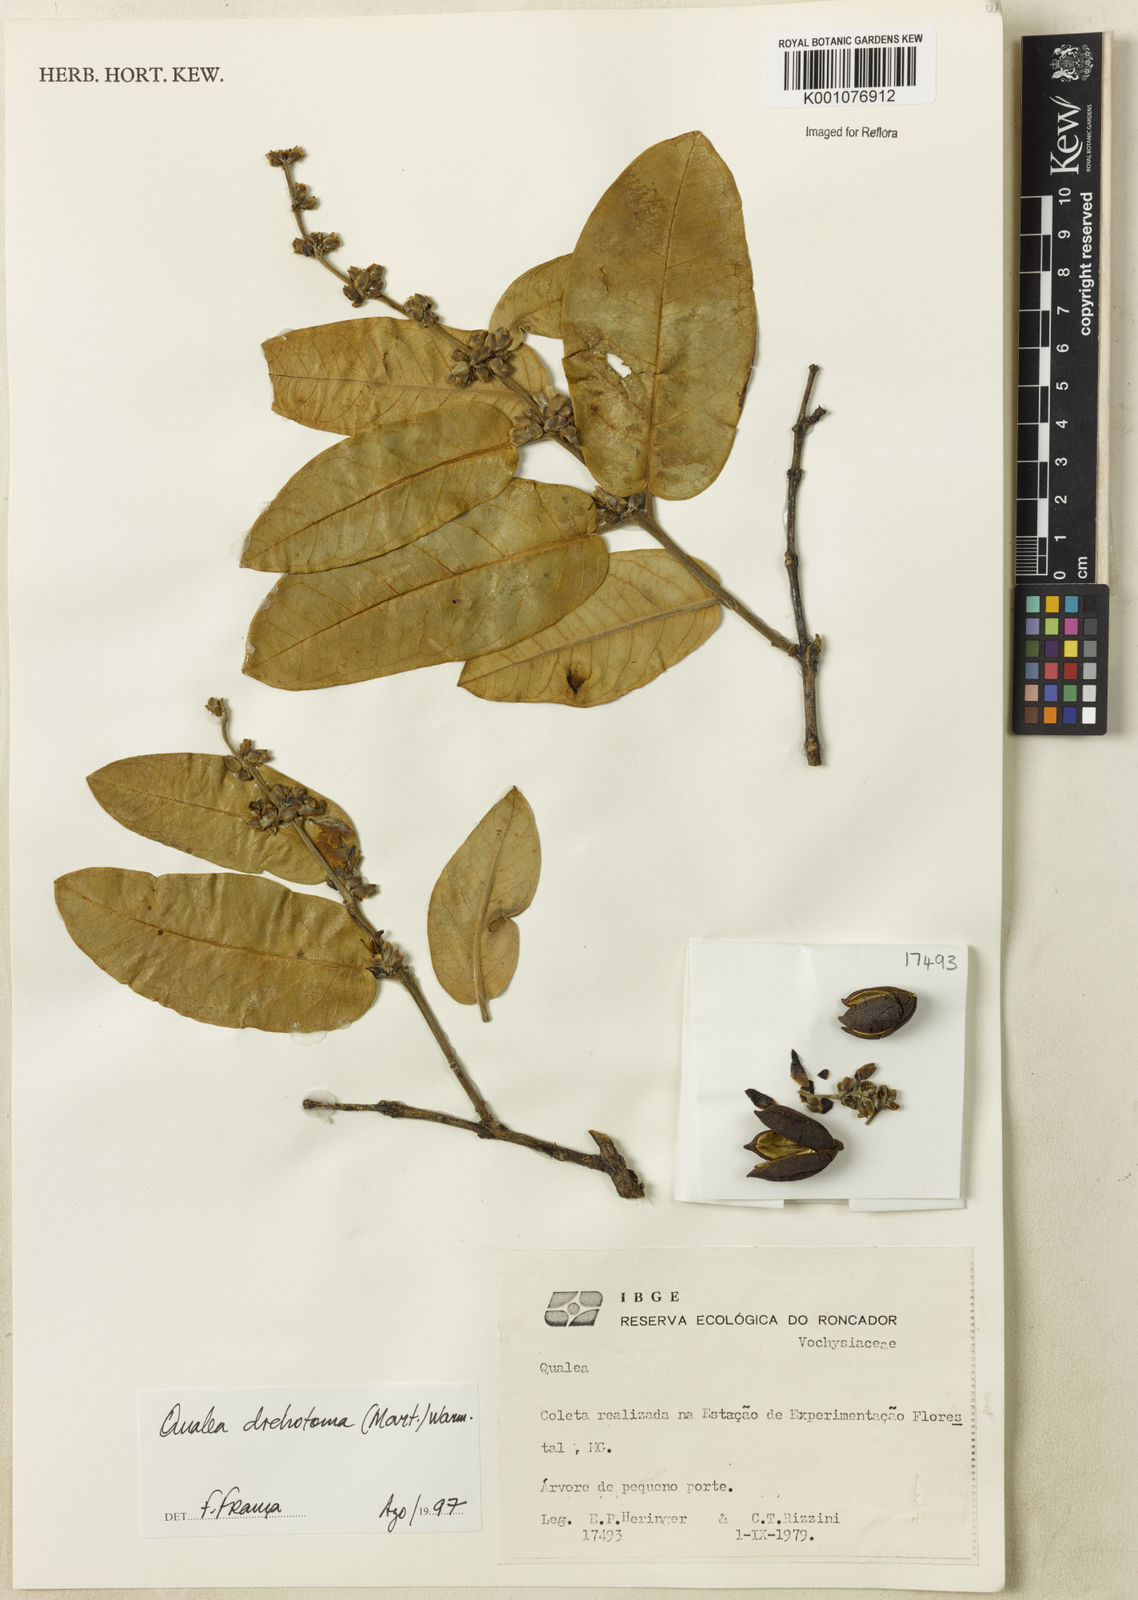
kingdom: Plantae
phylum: Tracheophyta
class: Magnoliopsida
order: Myrtales
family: Vochysiaceae
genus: Qualea
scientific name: Qualea
